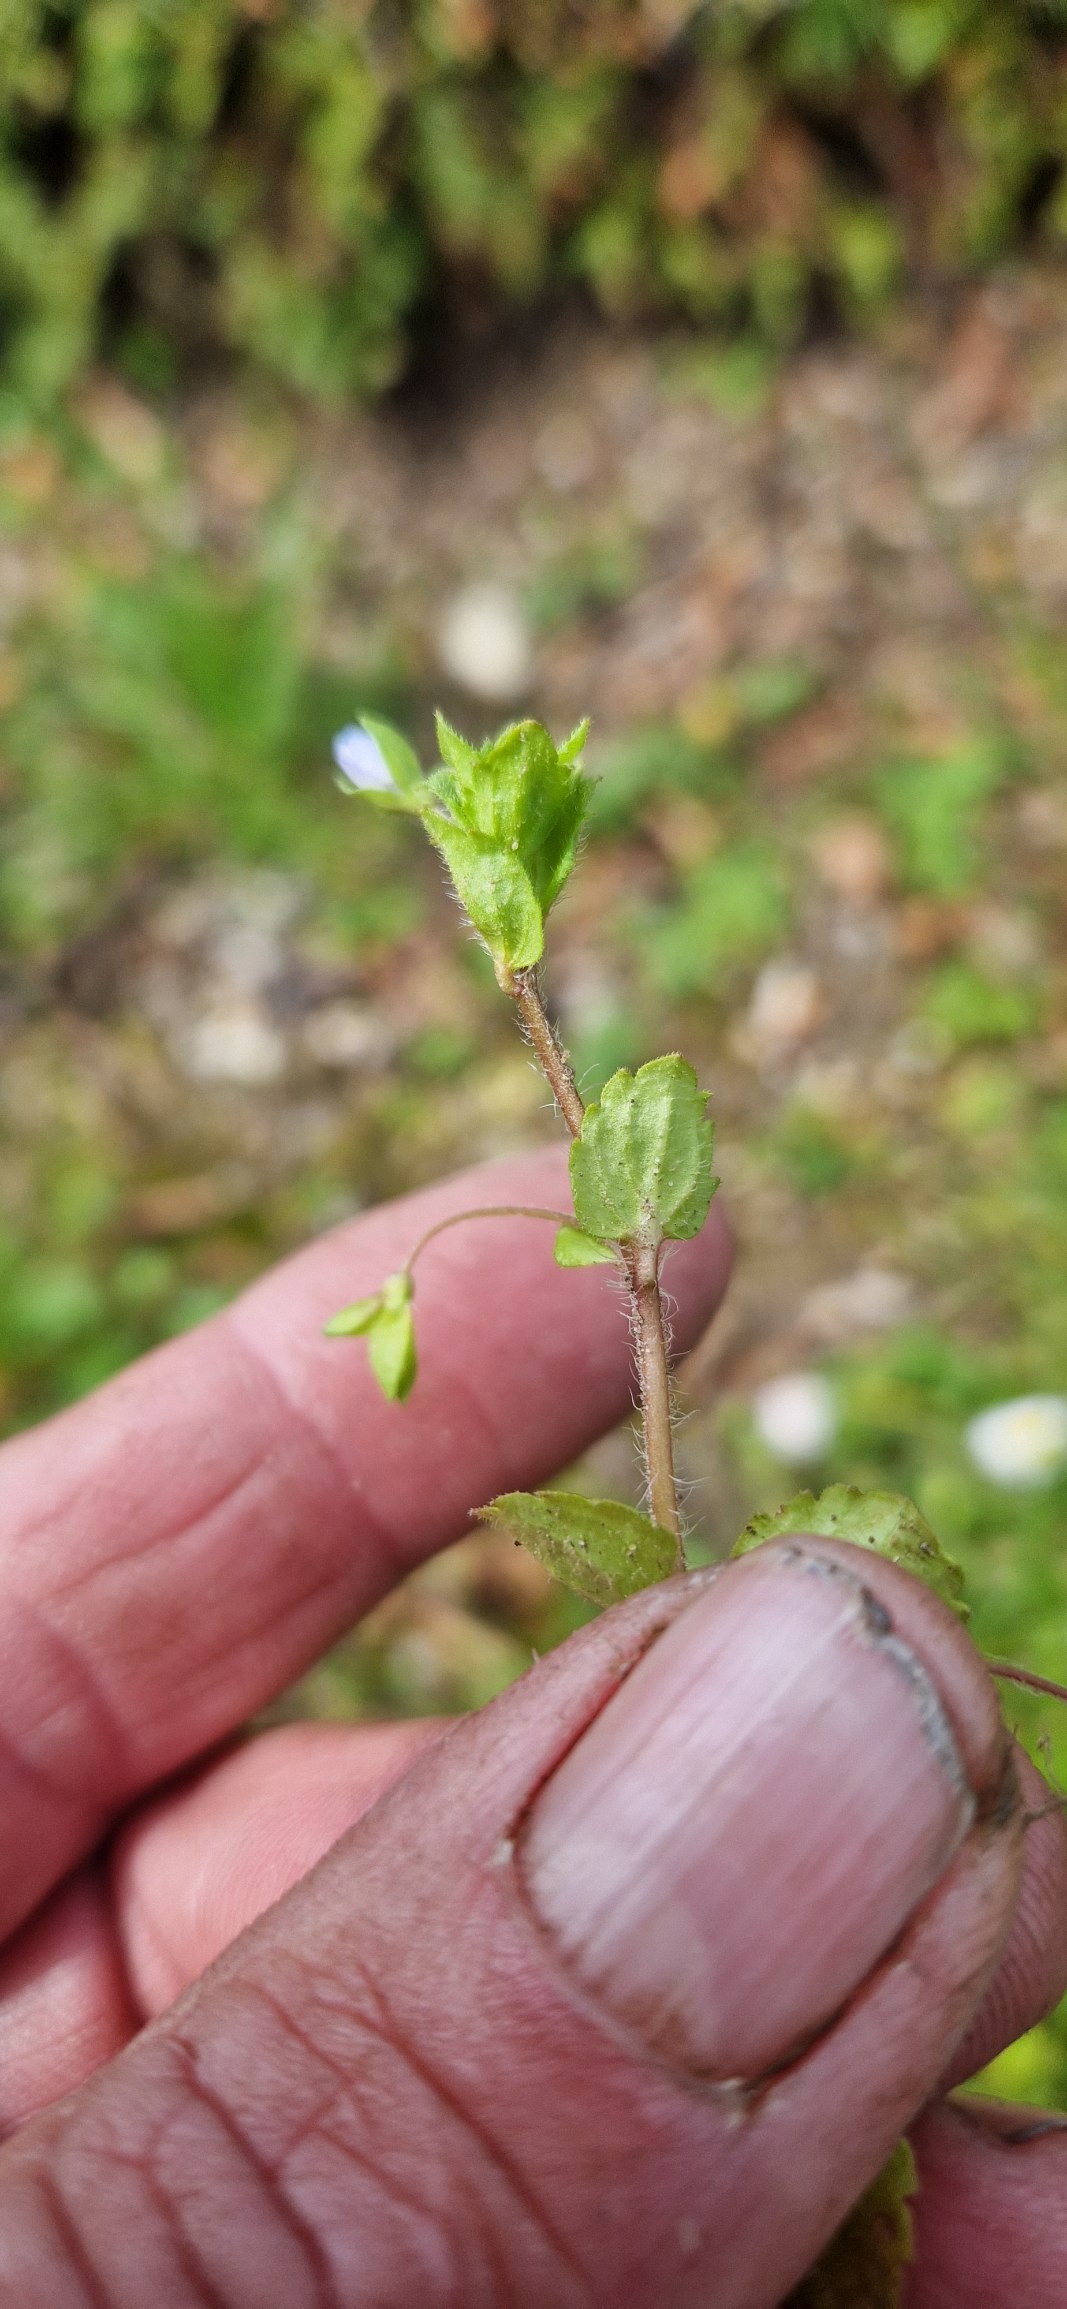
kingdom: Plantae
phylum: Tracheophyta
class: Magnoliopsida
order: Lamiales
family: Plantaginaceae
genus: Veronica
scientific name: Veronica filiformis
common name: Tråd-ærenpris
